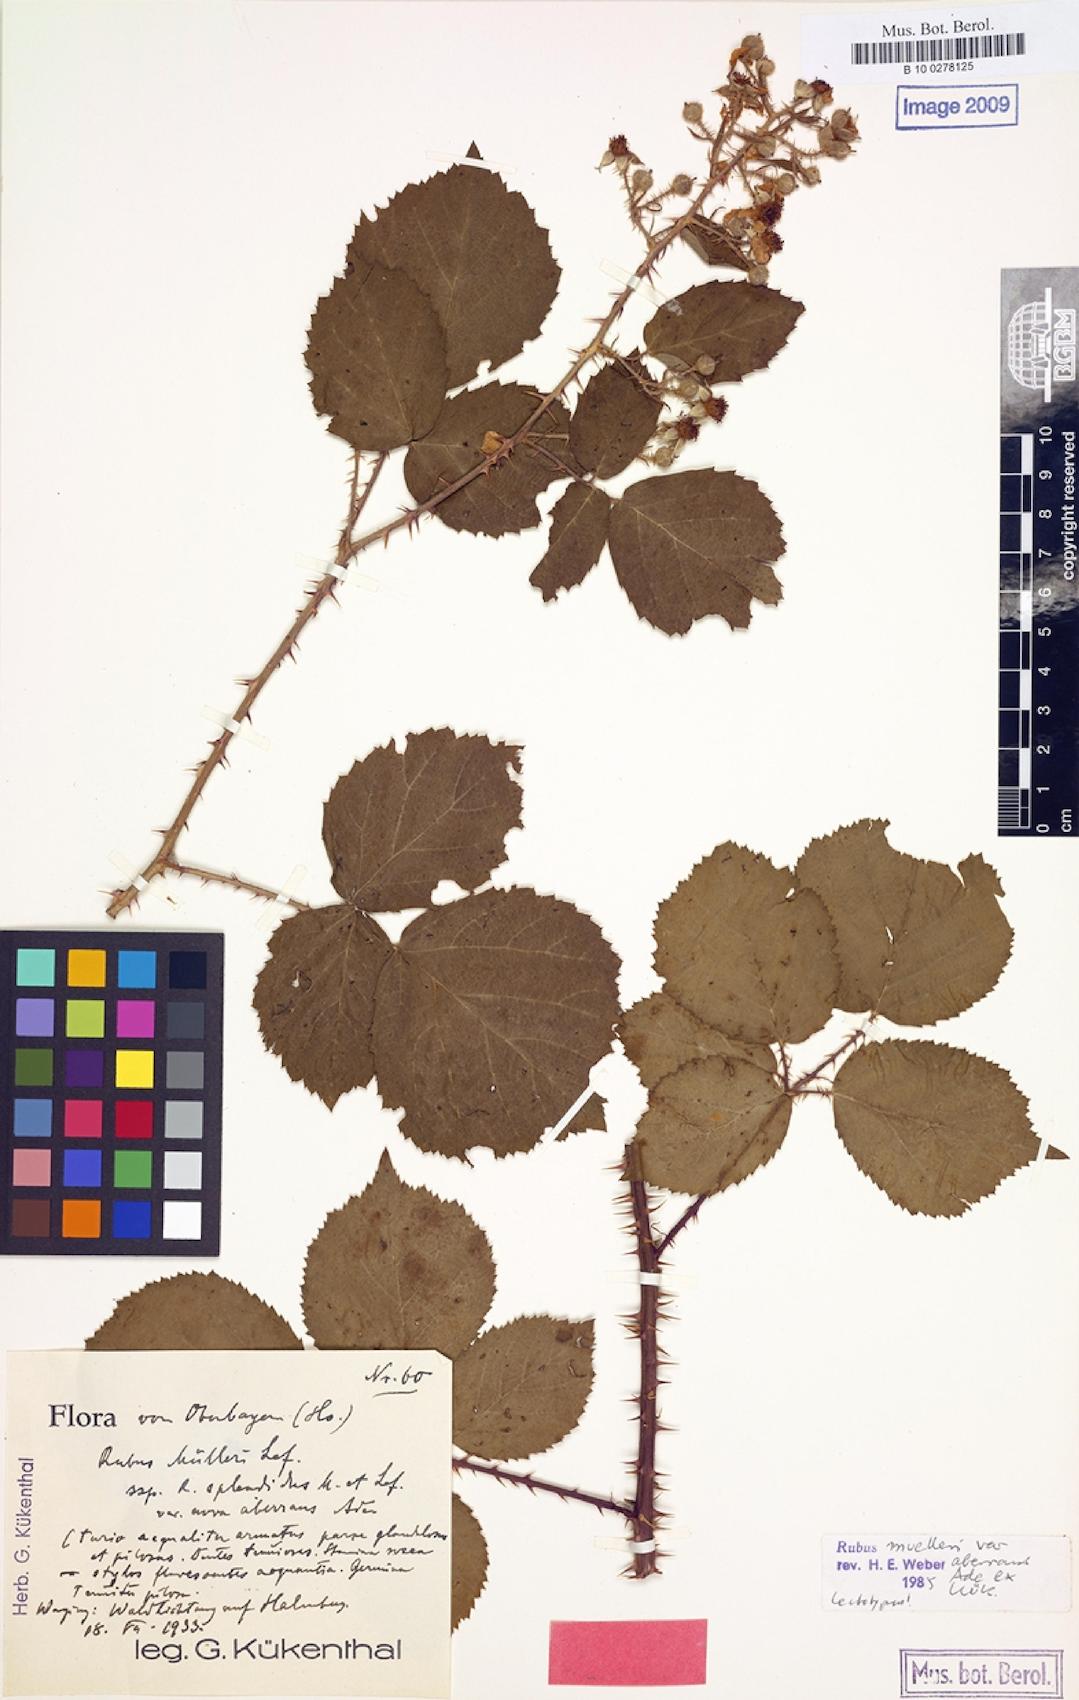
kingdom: Plantae
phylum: Tracheophyta
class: Magnoliopsida
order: Rosales
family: Rosaceae
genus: Rubus
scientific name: Rubus insericatus
